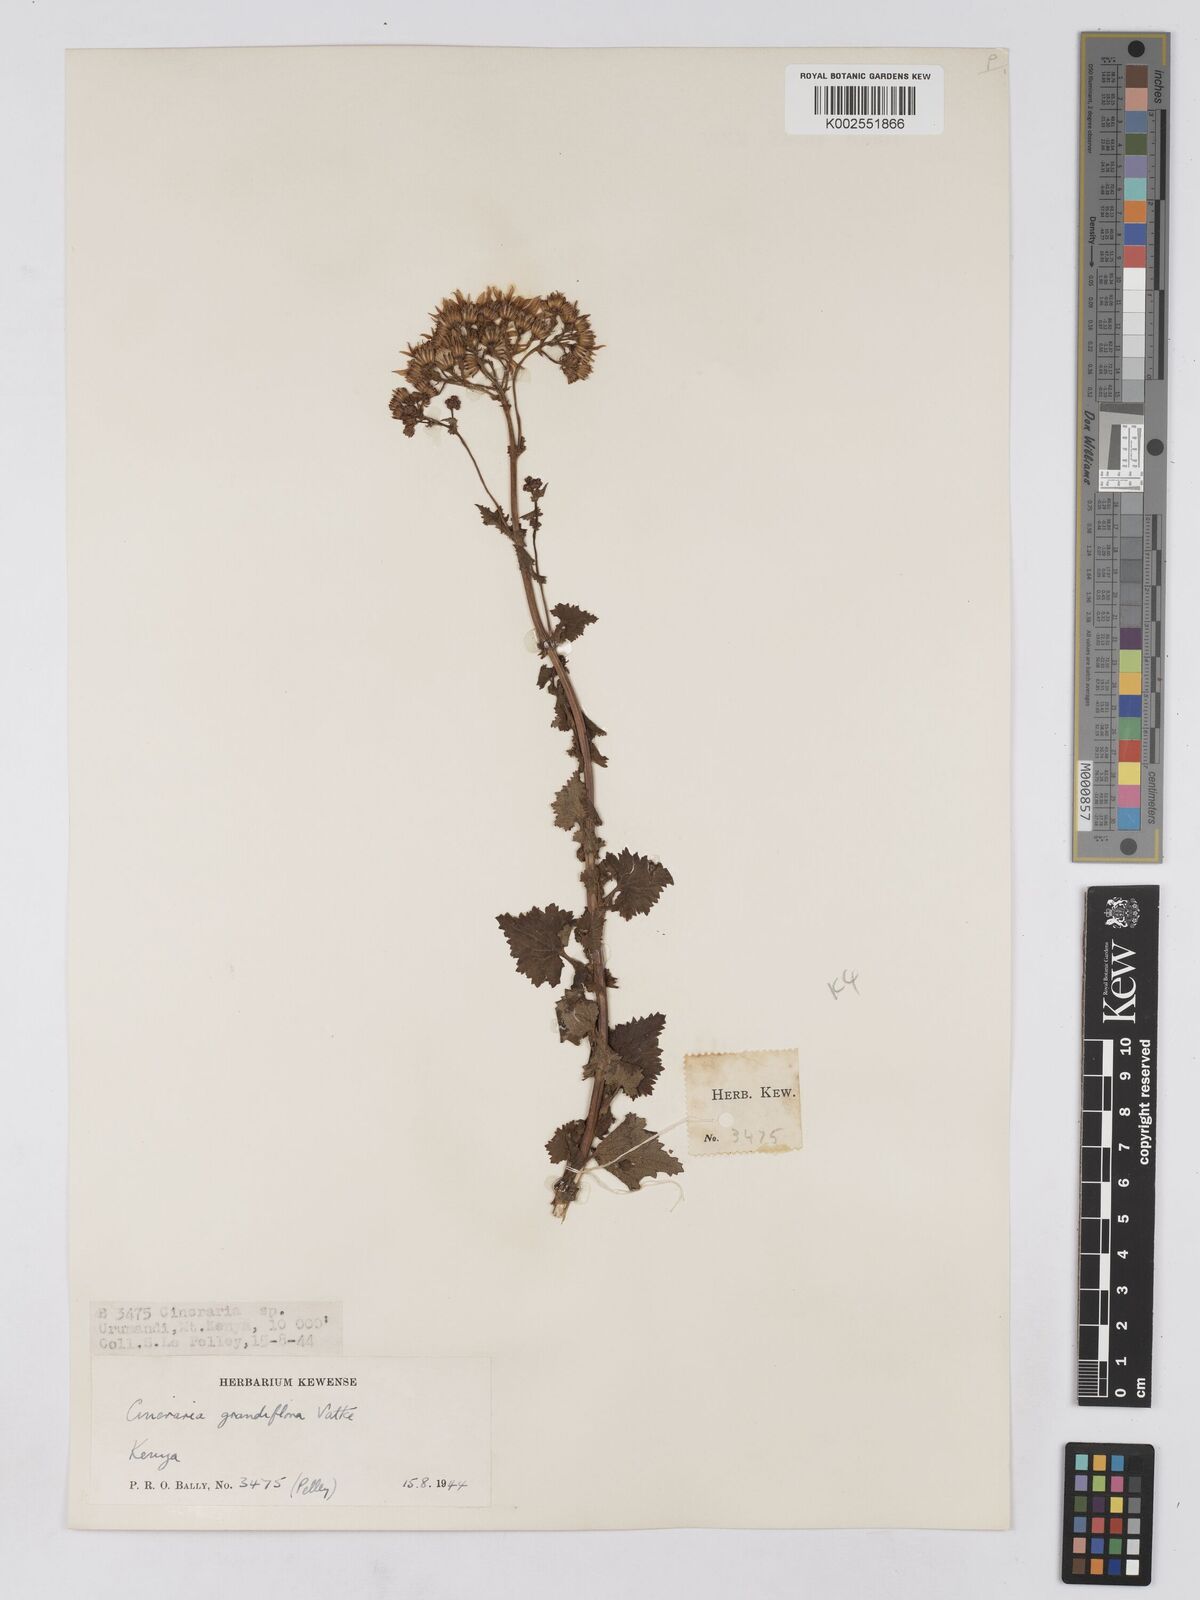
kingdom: Plantae
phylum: Tracheophyta
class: Magnoliopsida
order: Asterales
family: Asteraceae
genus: Cineraria
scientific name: Cineraria deltoidea
